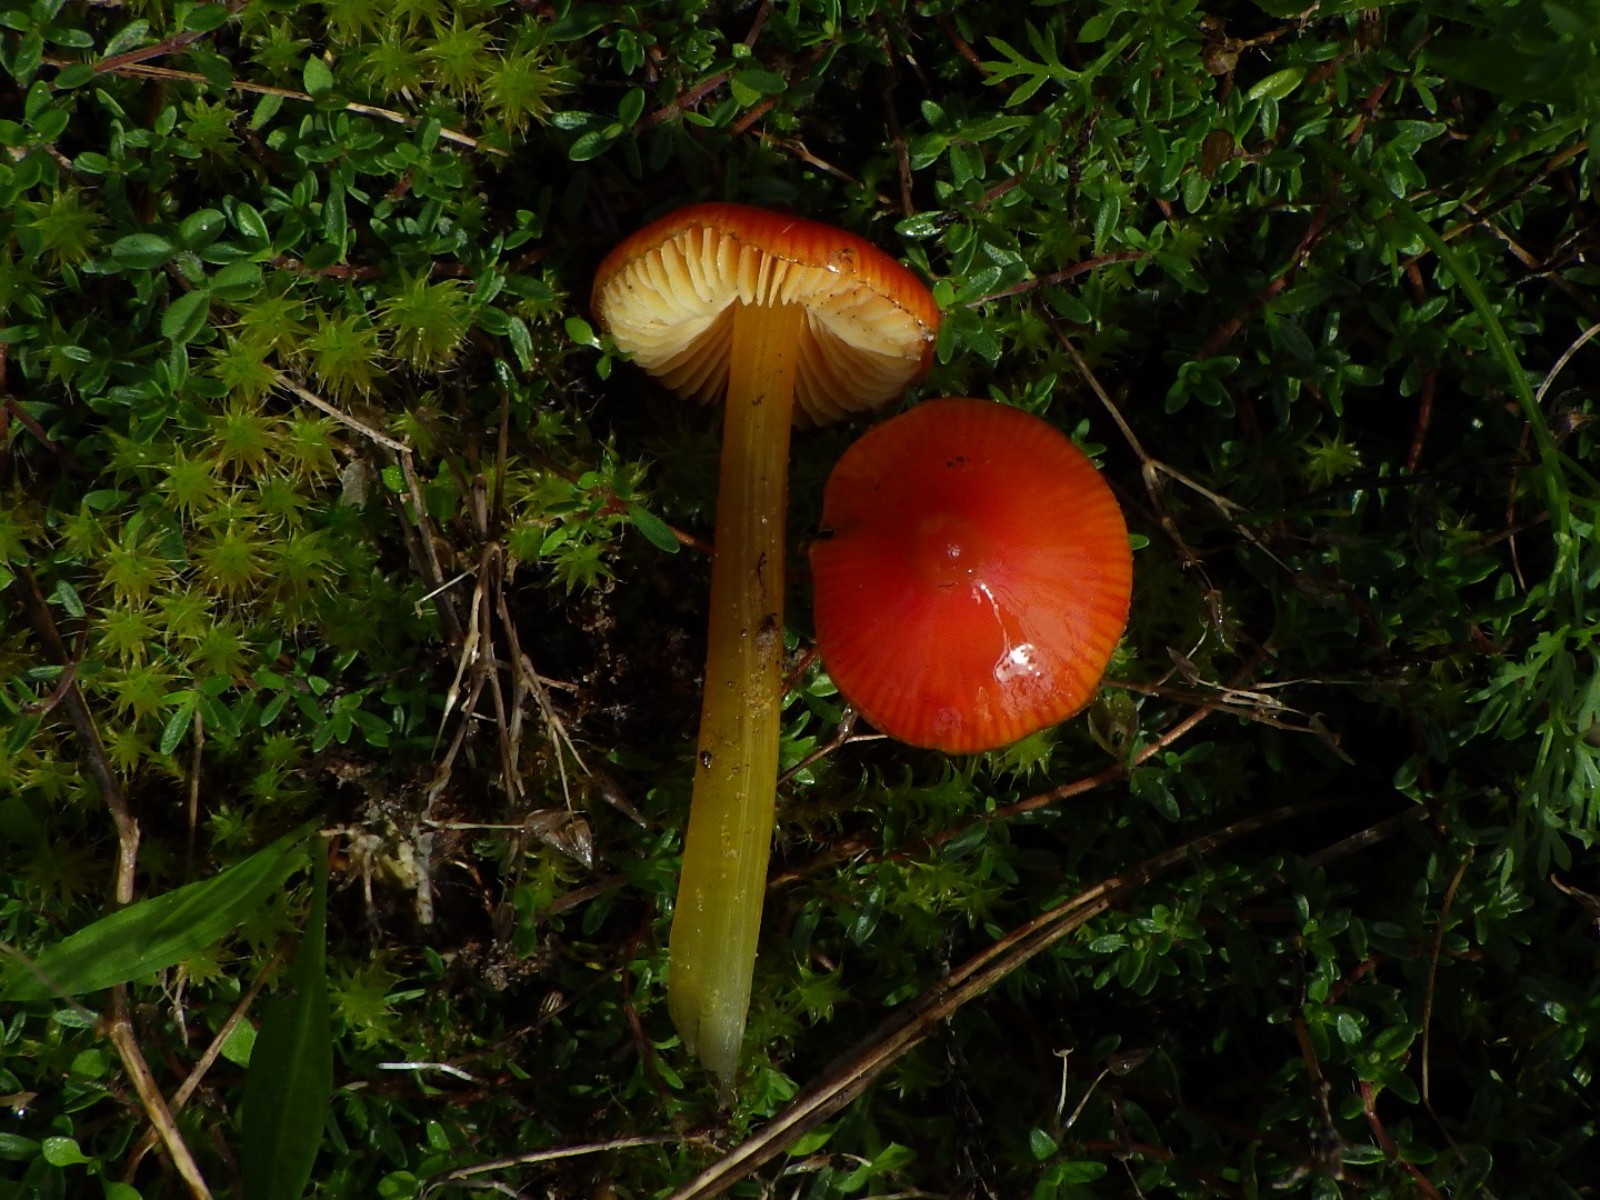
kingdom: Fungi
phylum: Basidiomycota
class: Agaricomycetes
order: Agaricales
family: Hygrophoraceae
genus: Hygrocybe
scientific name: Hygrocybe conica
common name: kegle-vokshat
